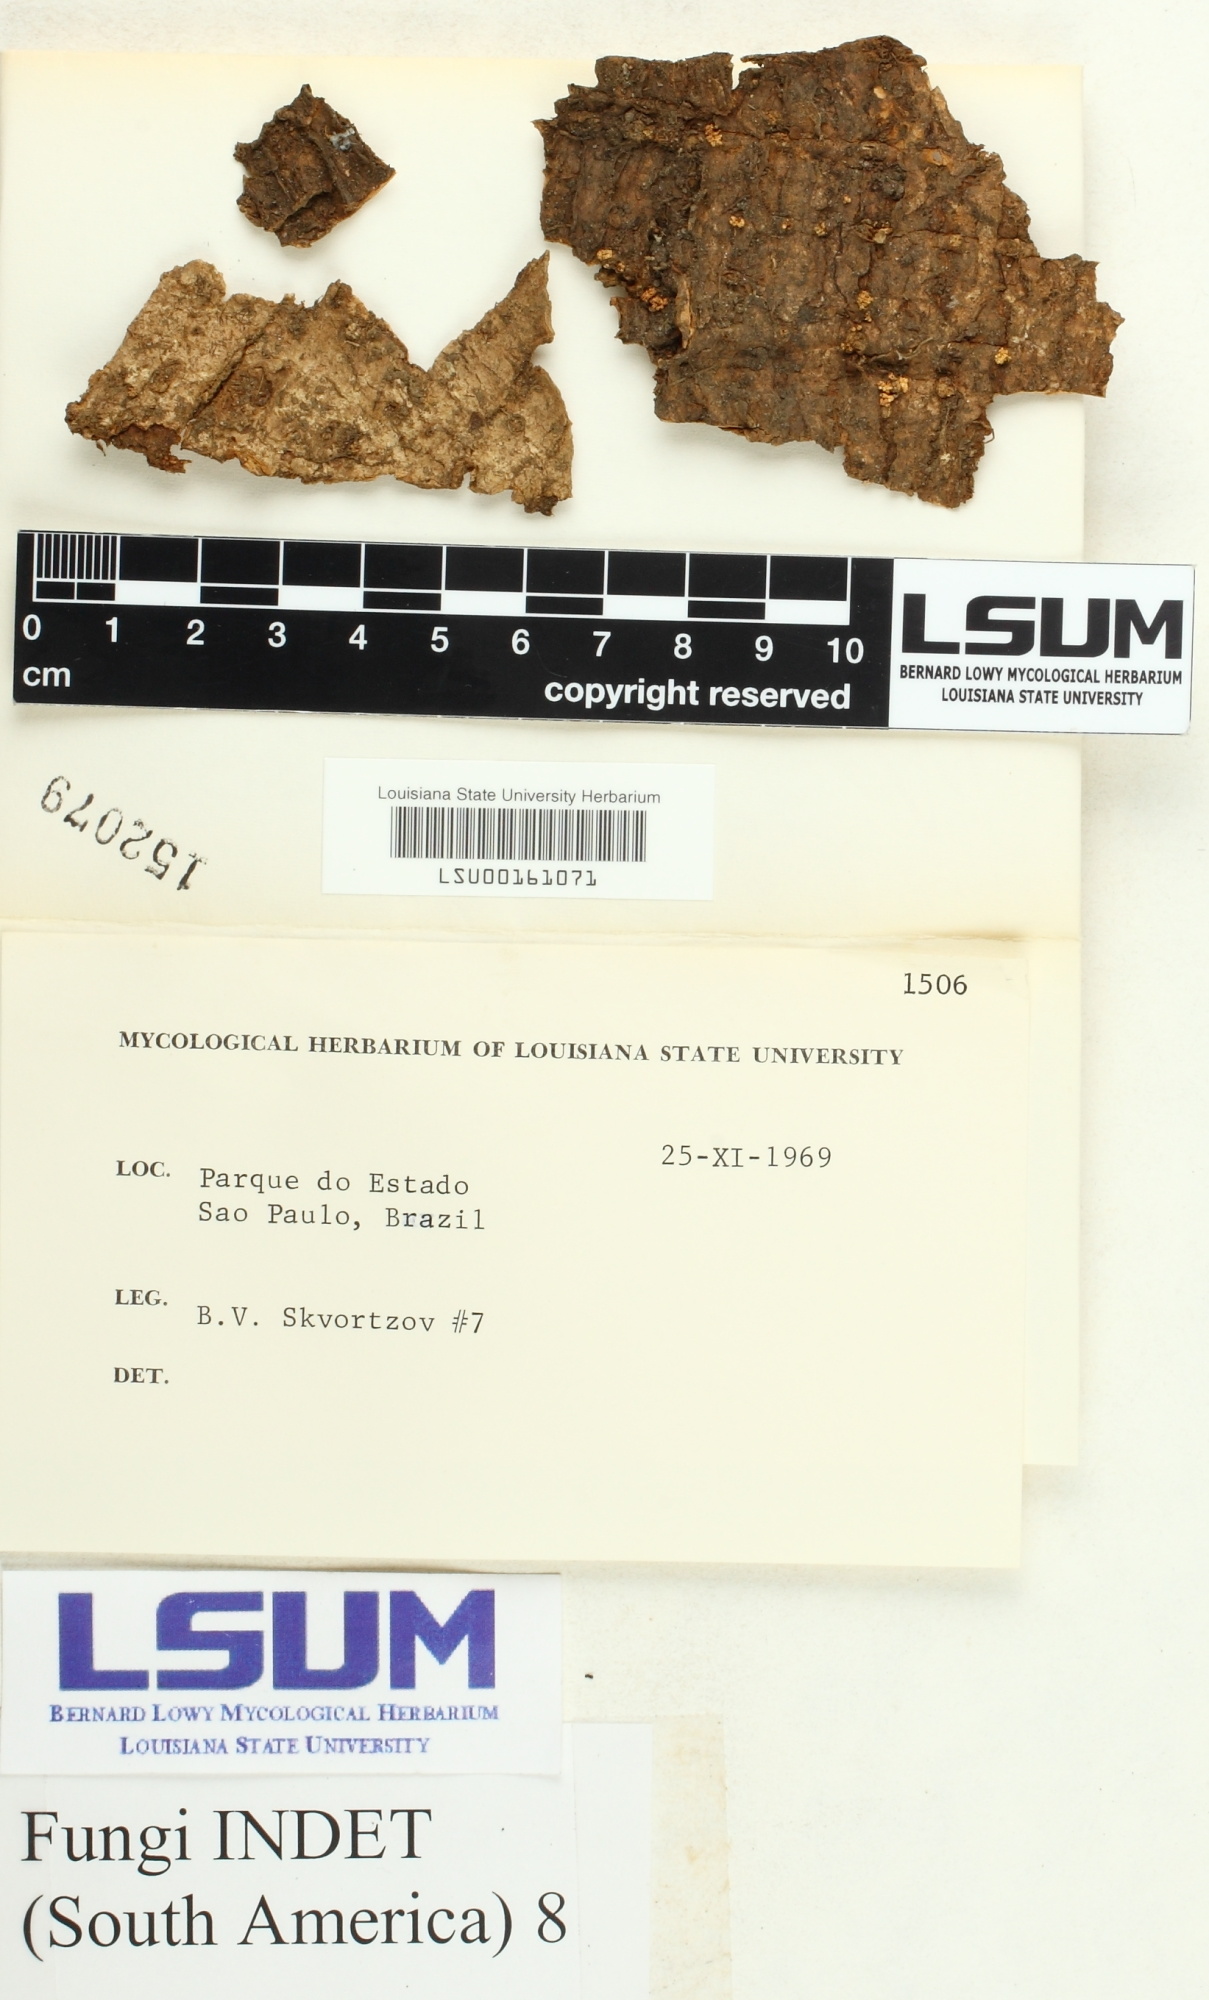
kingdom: Fungi
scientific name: Fungi
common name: Fungi
